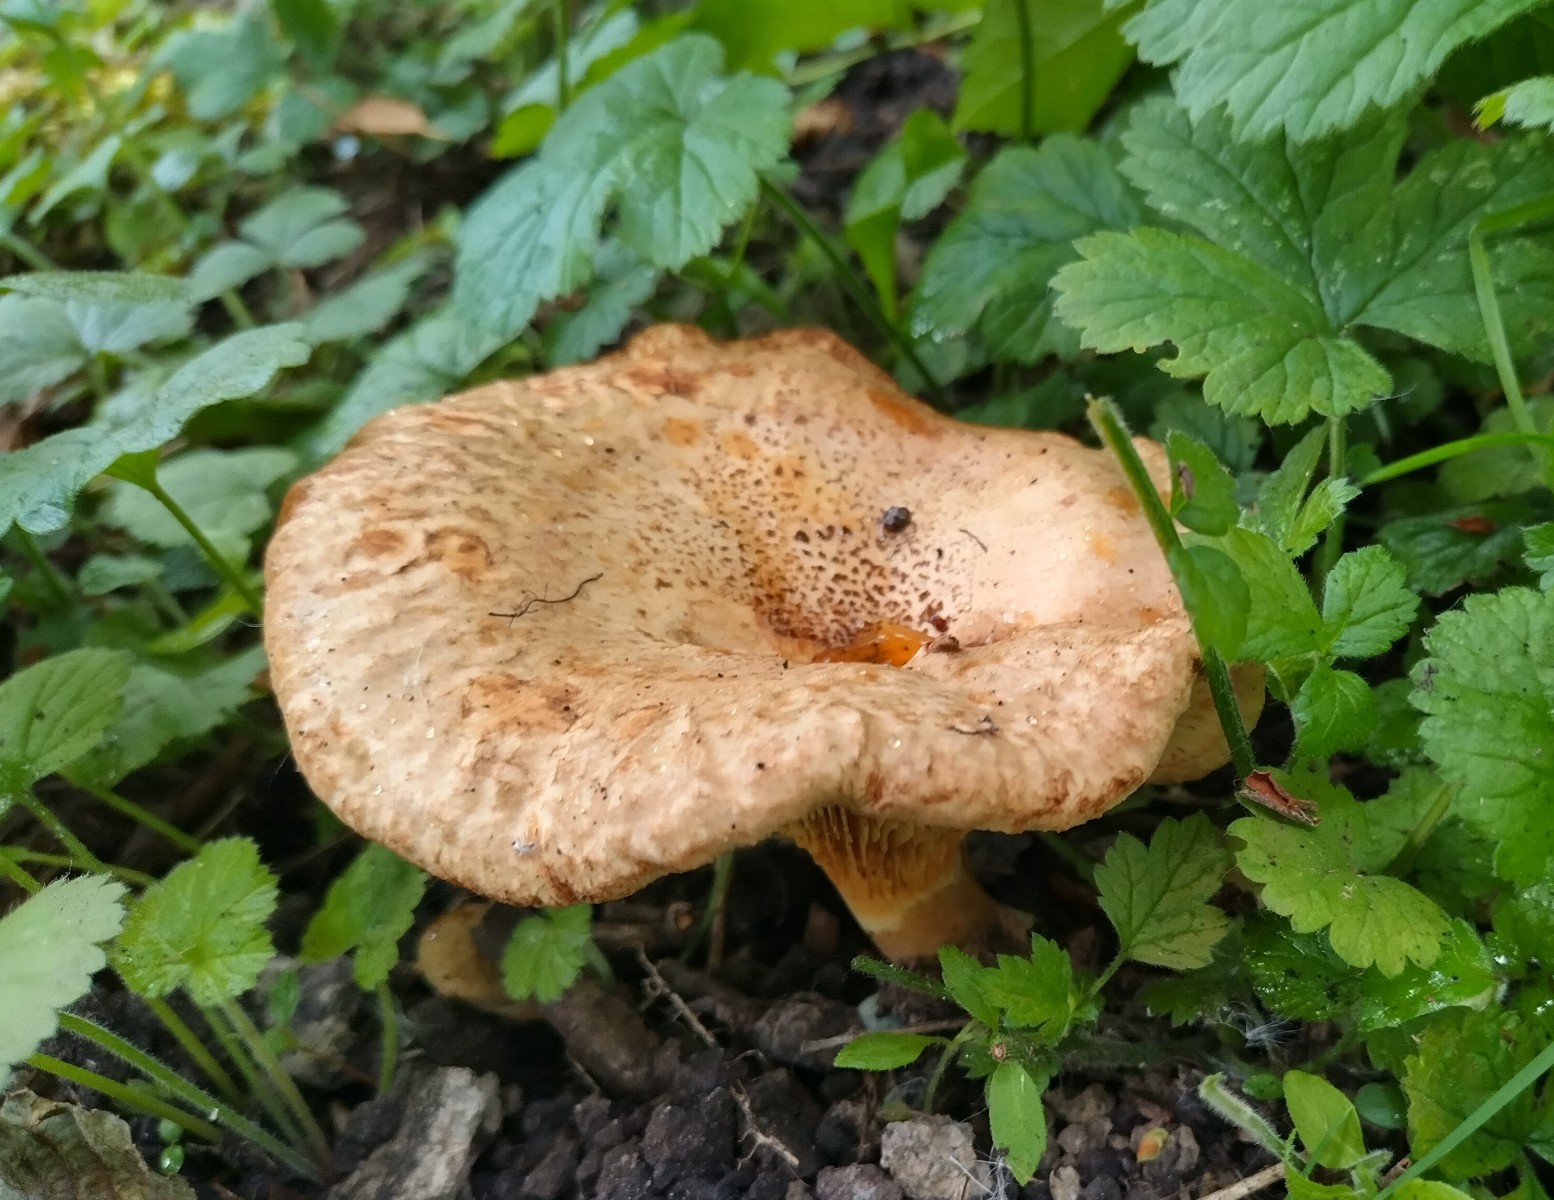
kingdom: Fungi
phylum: Basidiomycota
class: Agaricomycetes
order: Boletales
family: Paxillaceae
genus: Paxillus
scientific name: Paxillus rubicundulus
